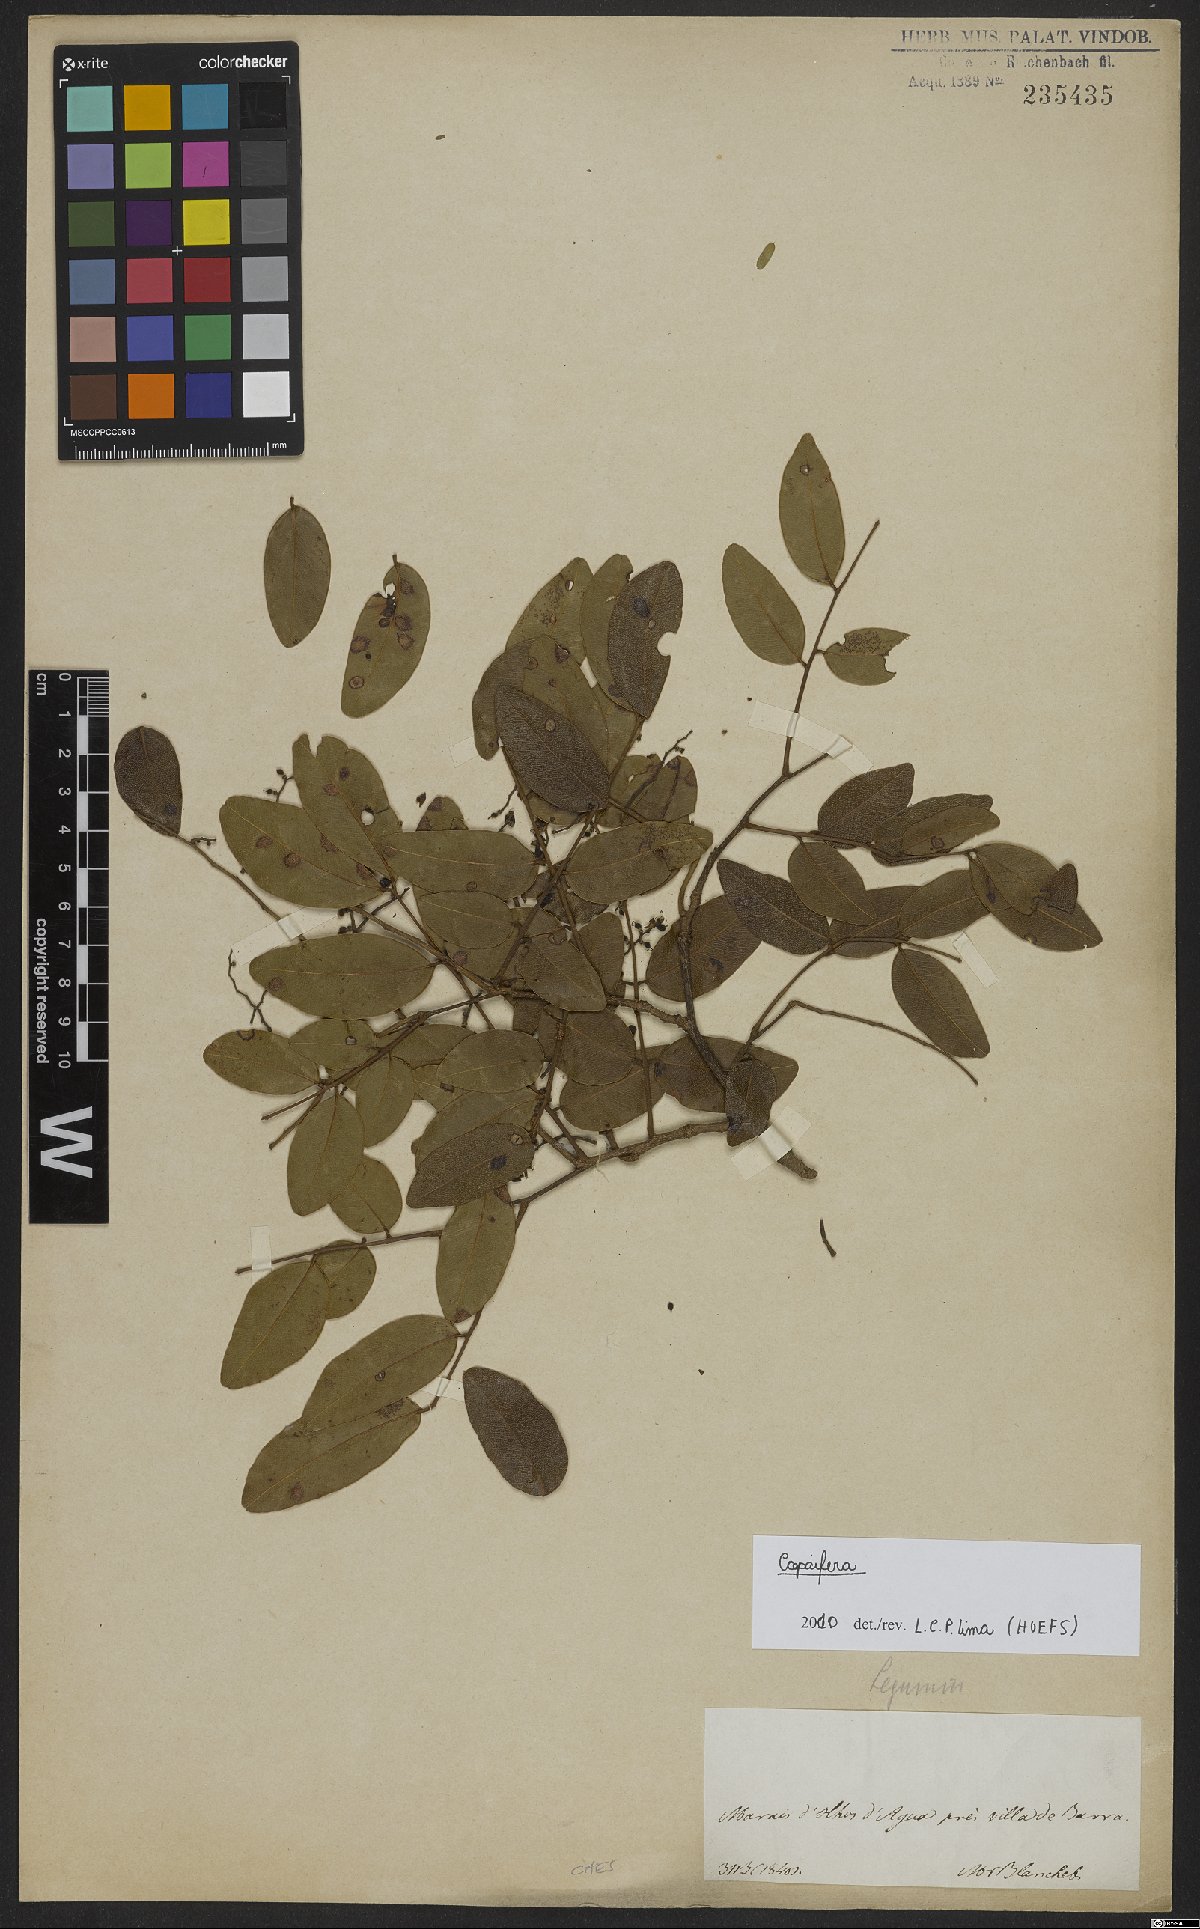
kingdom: Plantae
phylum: Tracheophyta
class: Magnoliopsida
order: Fabales
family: Fabaceae
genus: Copaifera
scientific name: Copaifera
